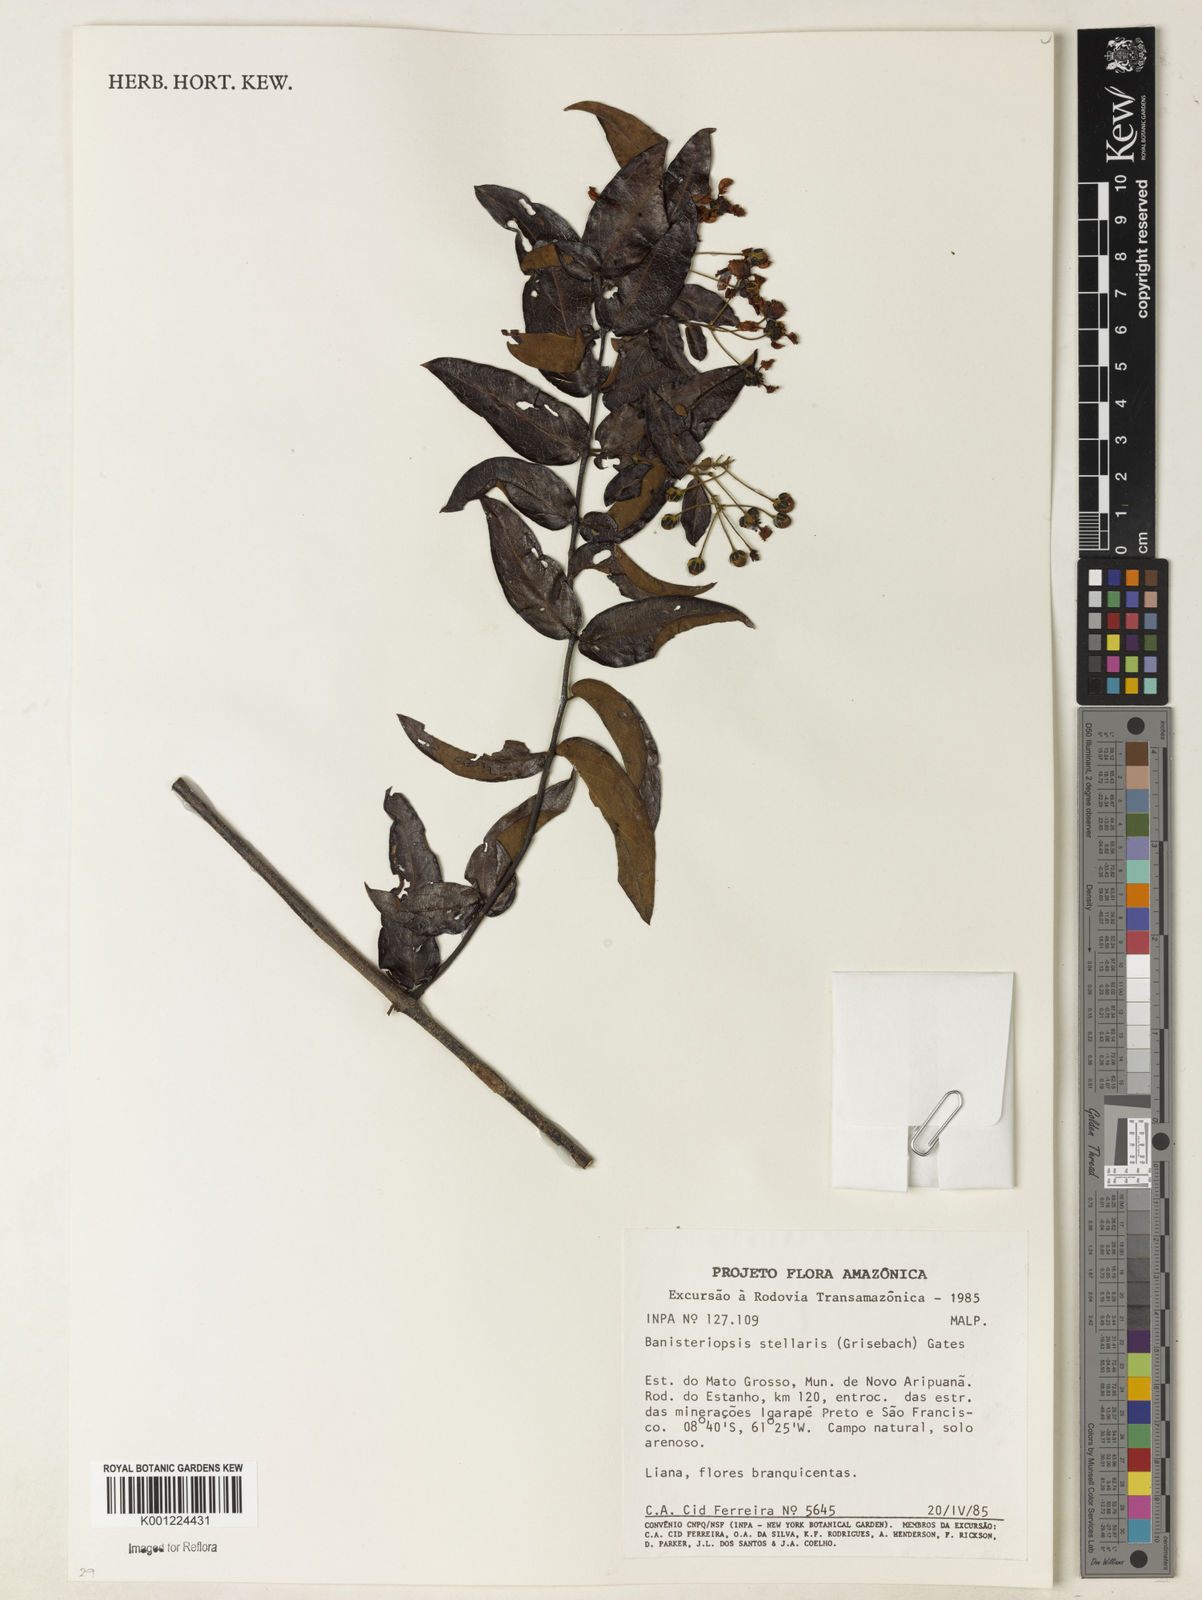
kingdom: Plantae
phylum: Tracheophyta
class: Magnoliopsida
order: Malpighiales
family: Malpighiaceae
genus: Banisteriopsis
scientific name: Banisteriopsis stellaris
